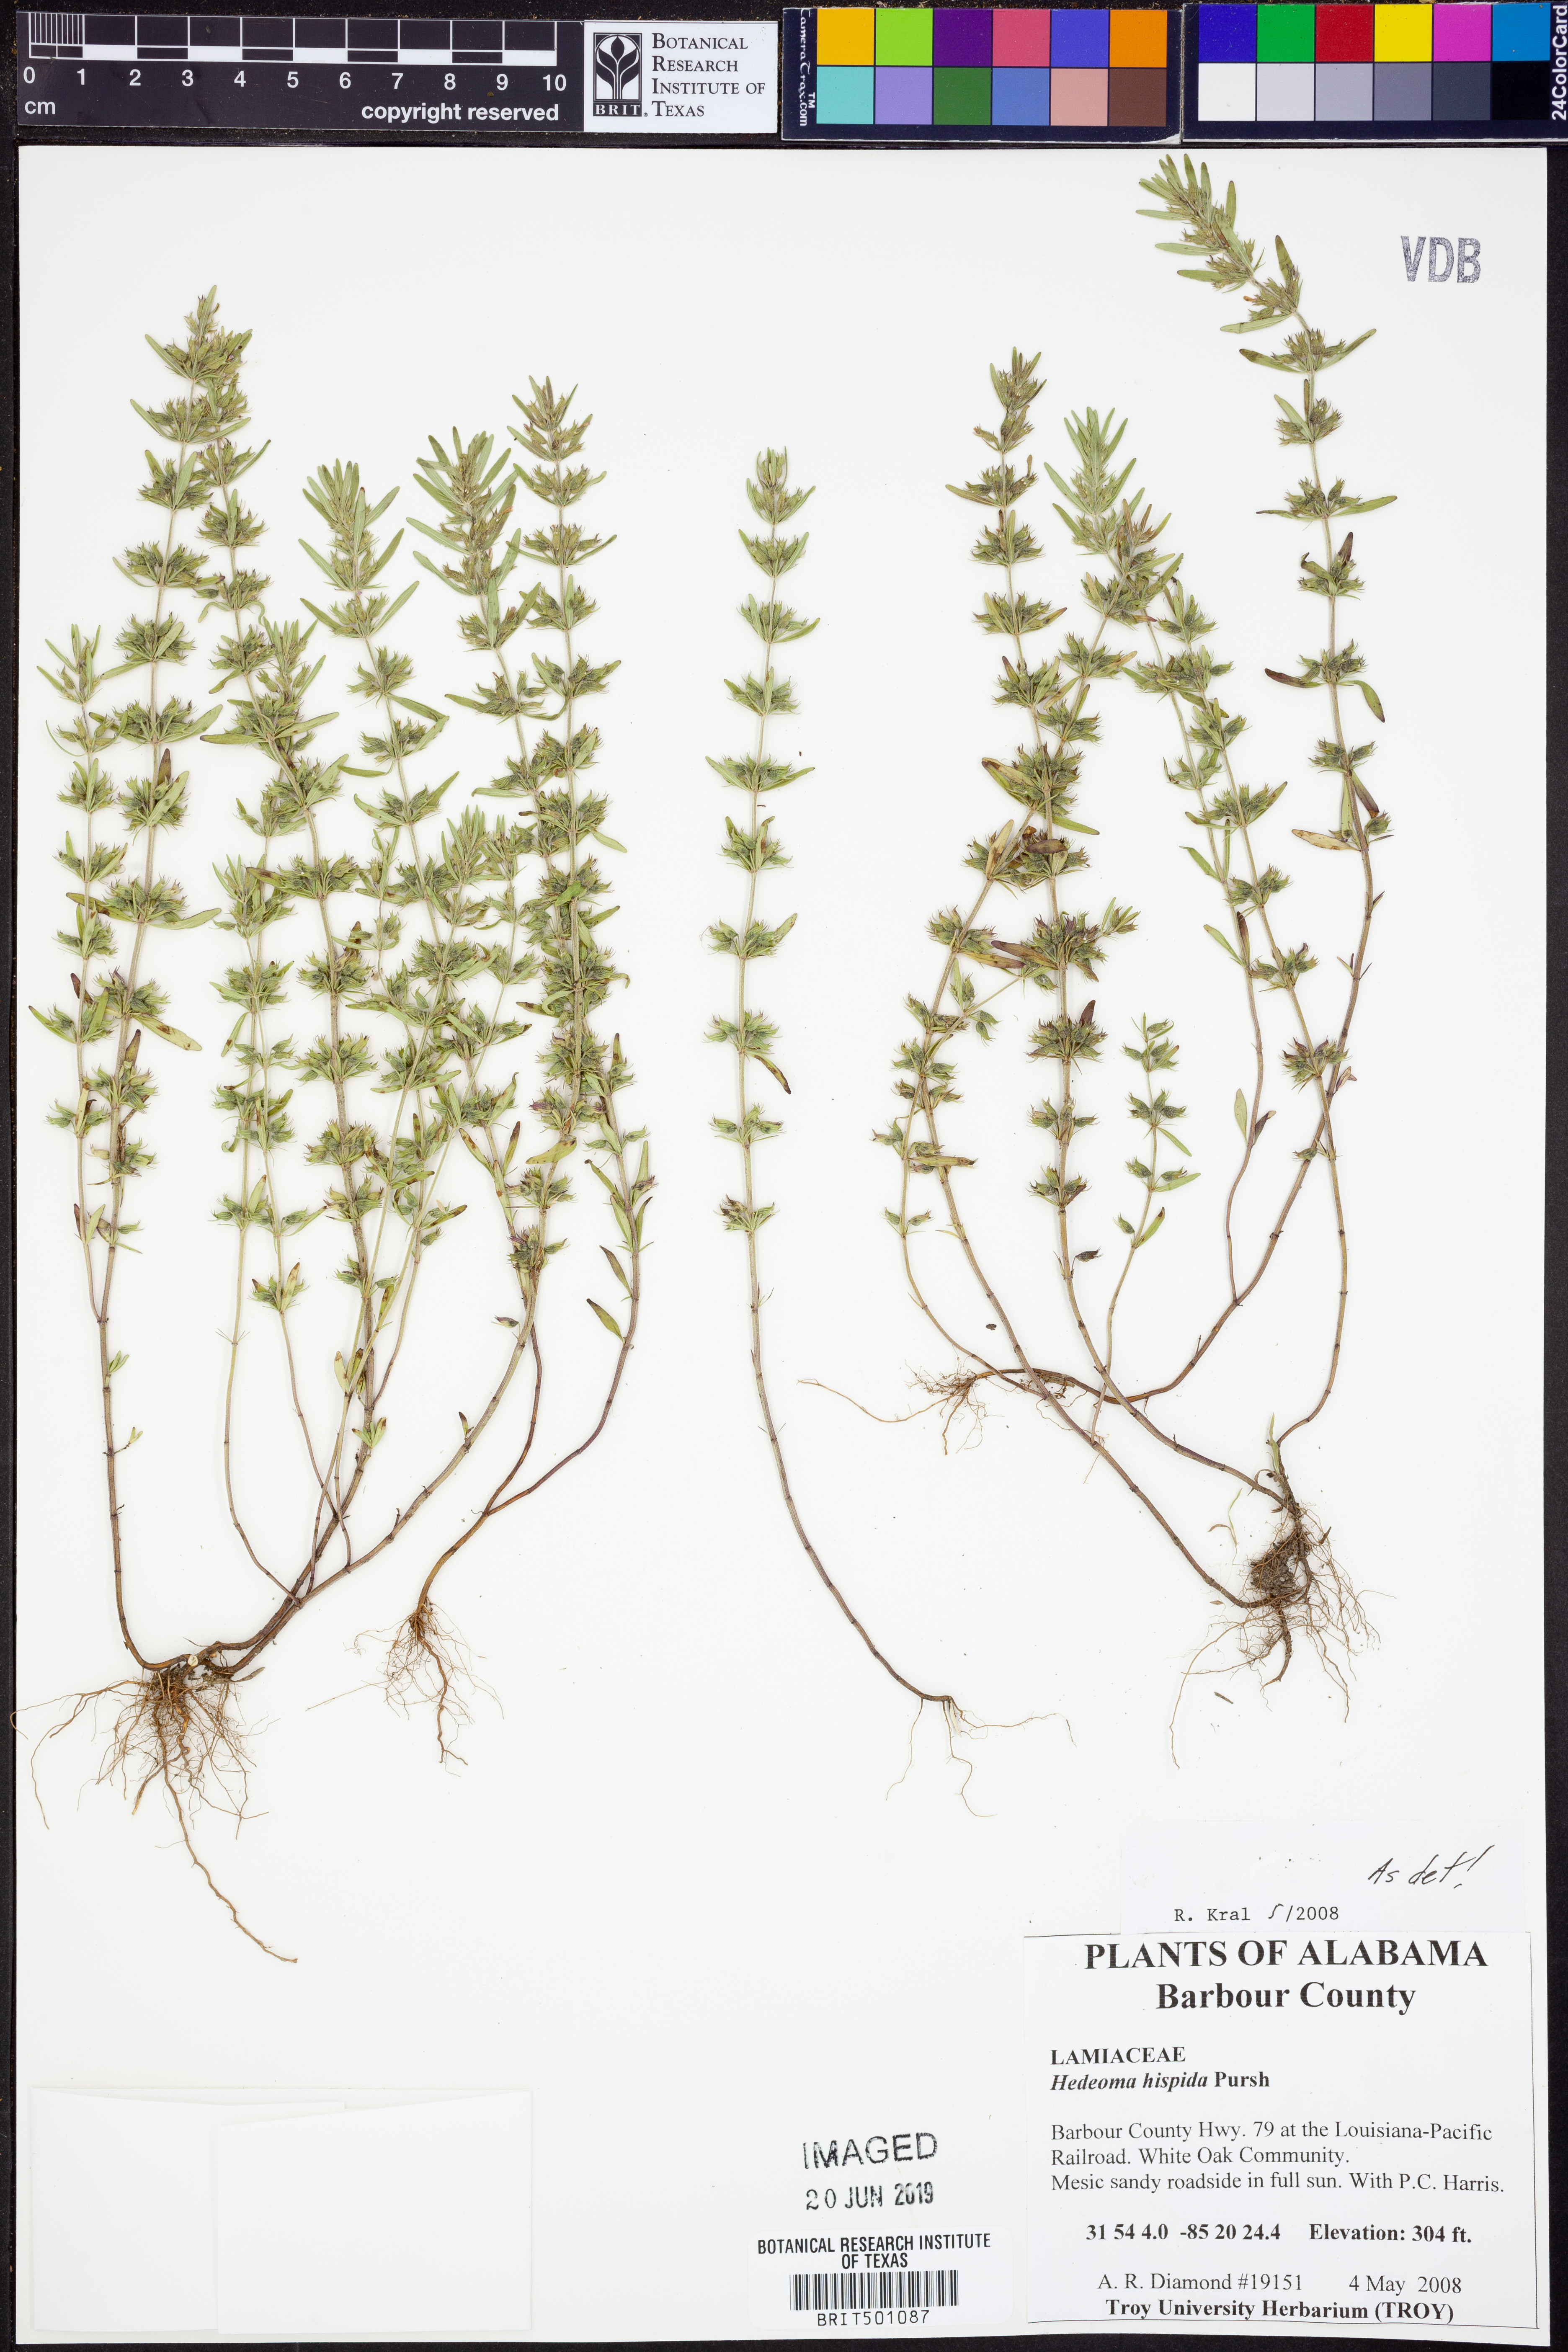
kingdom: Plantae
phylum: Tracheophyta
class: Magnoliopsida
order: Lamiales
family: Lamiaceae
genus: Hedeoma
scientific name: Hedeoma hispida
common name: Mock pennyroyal
